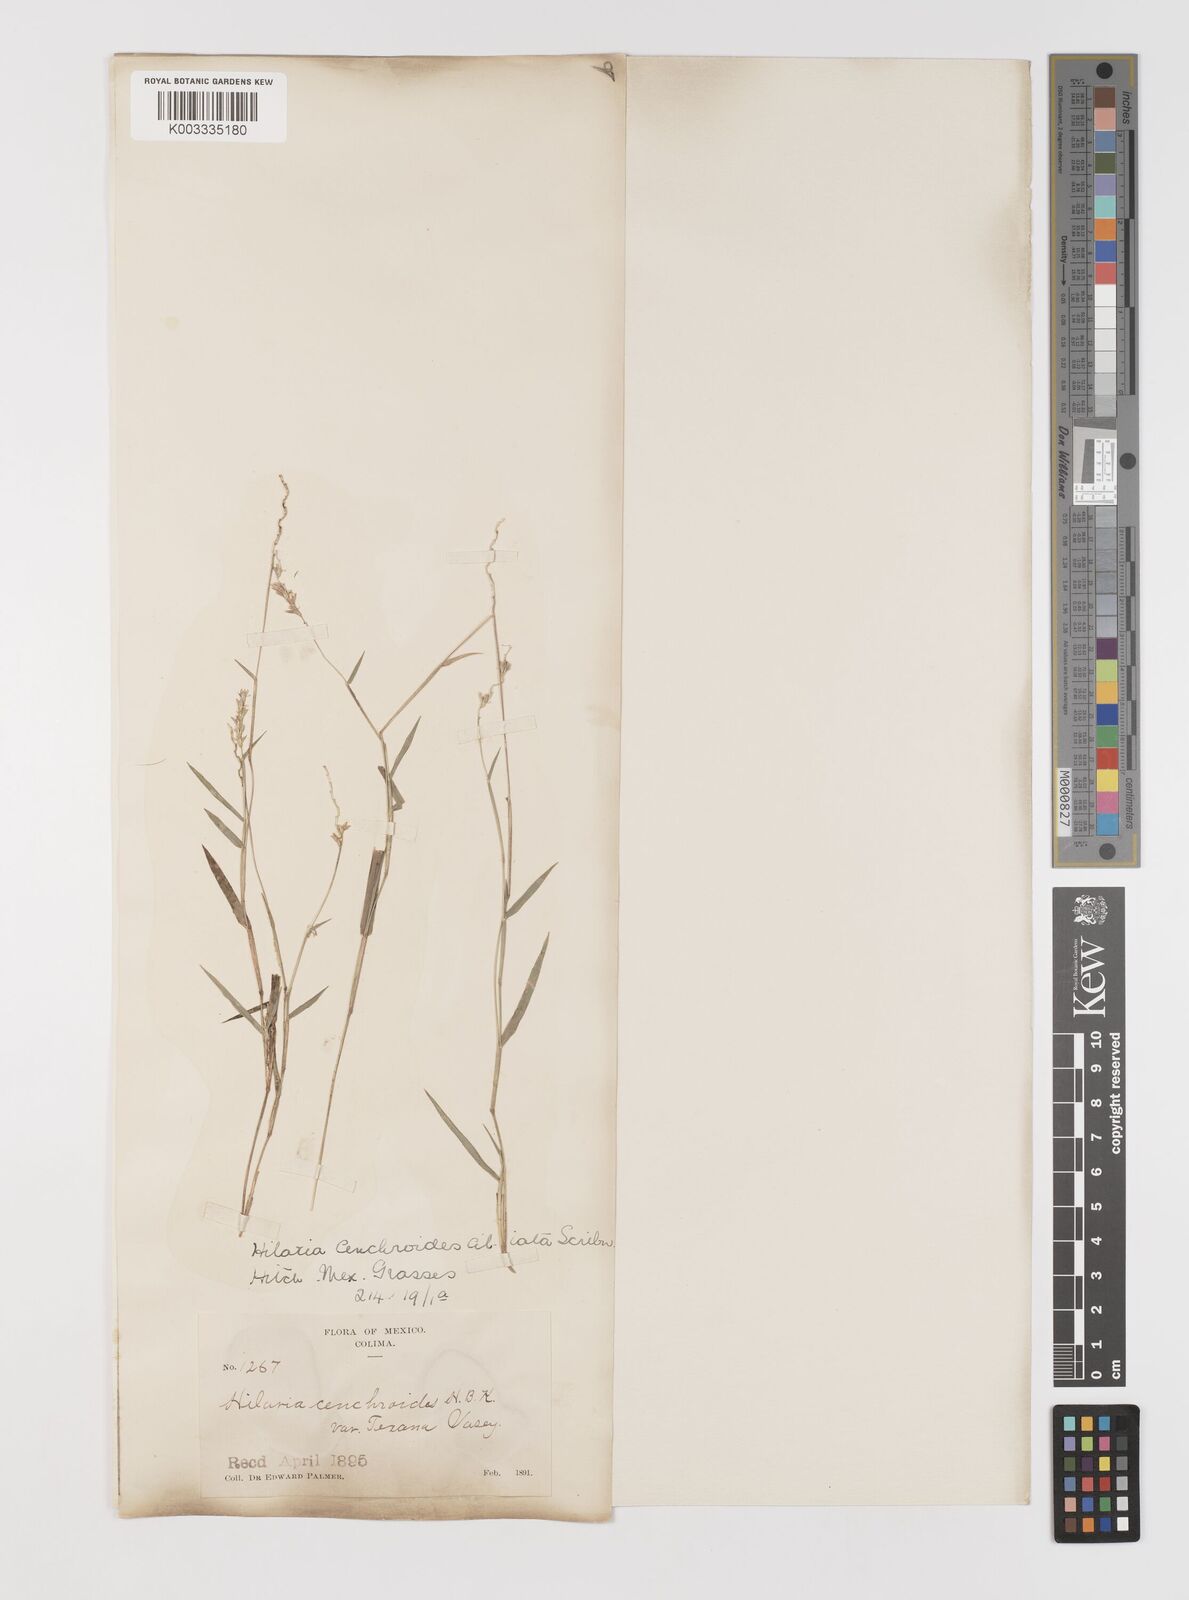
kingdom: Plantae
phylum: Tracheophyta
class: Liliopsida
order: Poales
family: Poaceae
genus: Hilaria
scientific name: Hilaria ciliata
